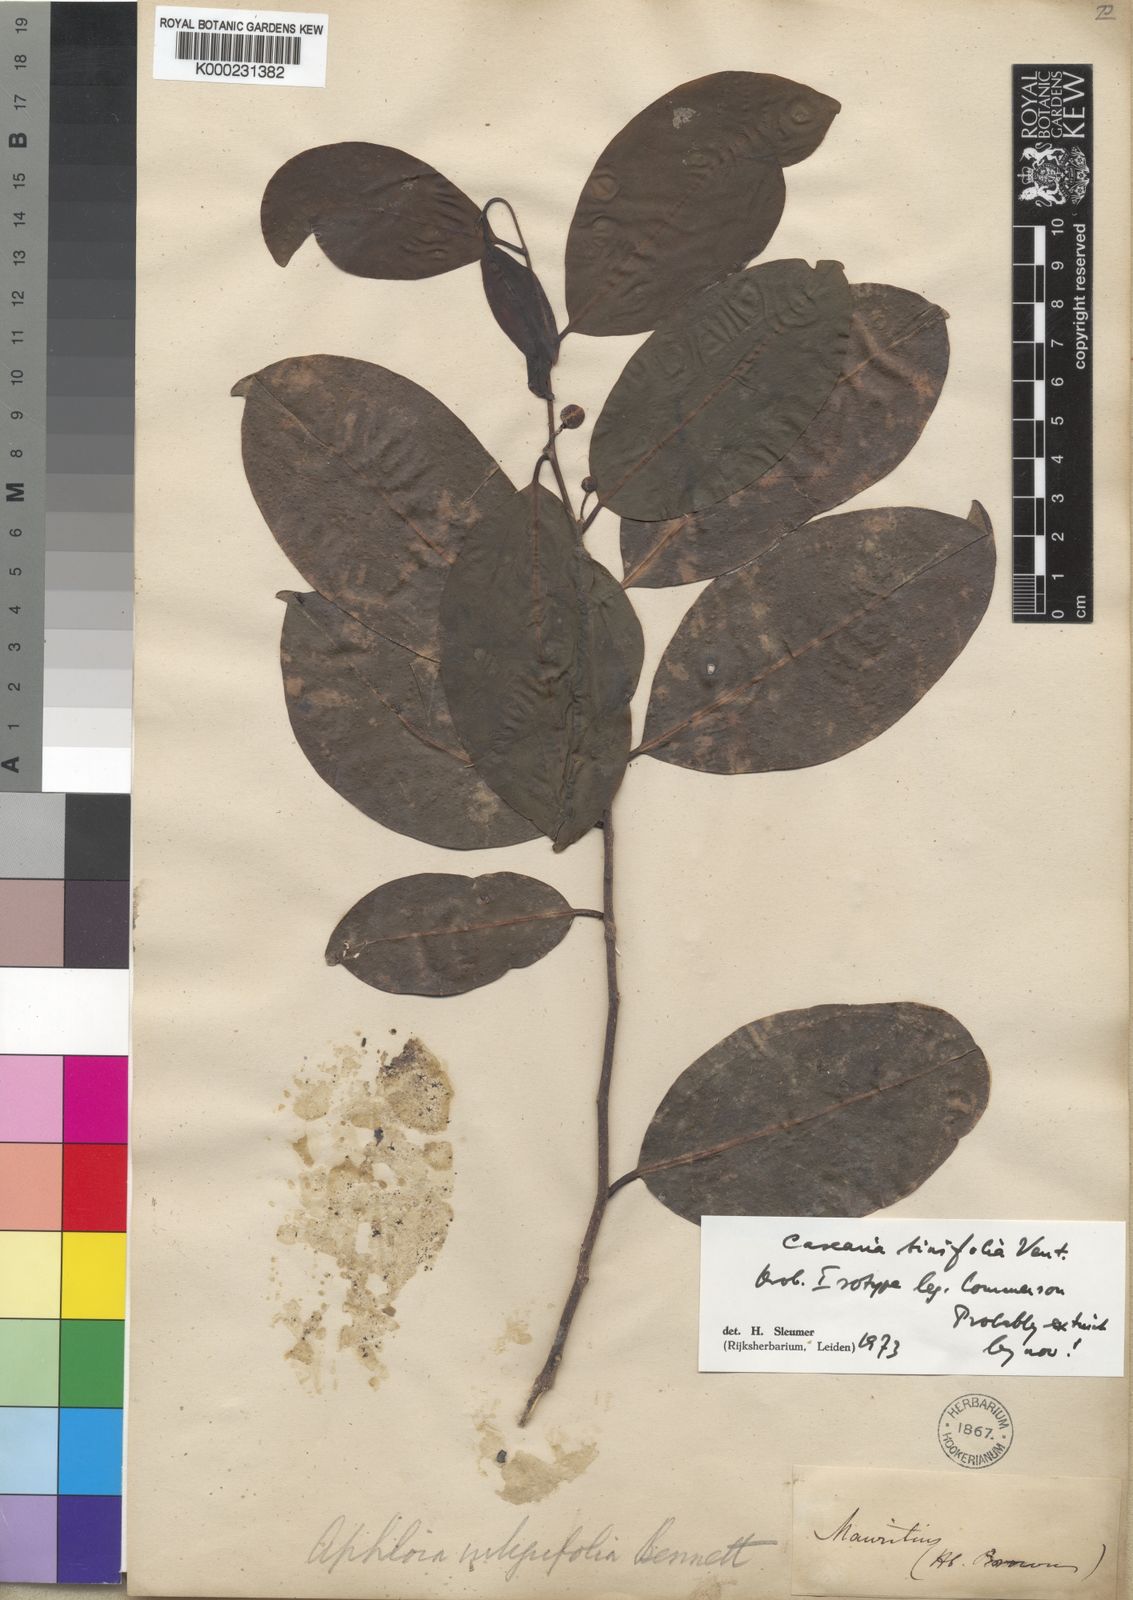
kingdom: Plantae
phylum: Tracheophyta
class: Magnoliopsida
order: Malpighiales
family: Salicaceae
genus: Casearia
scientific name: Casearia tinifolia
